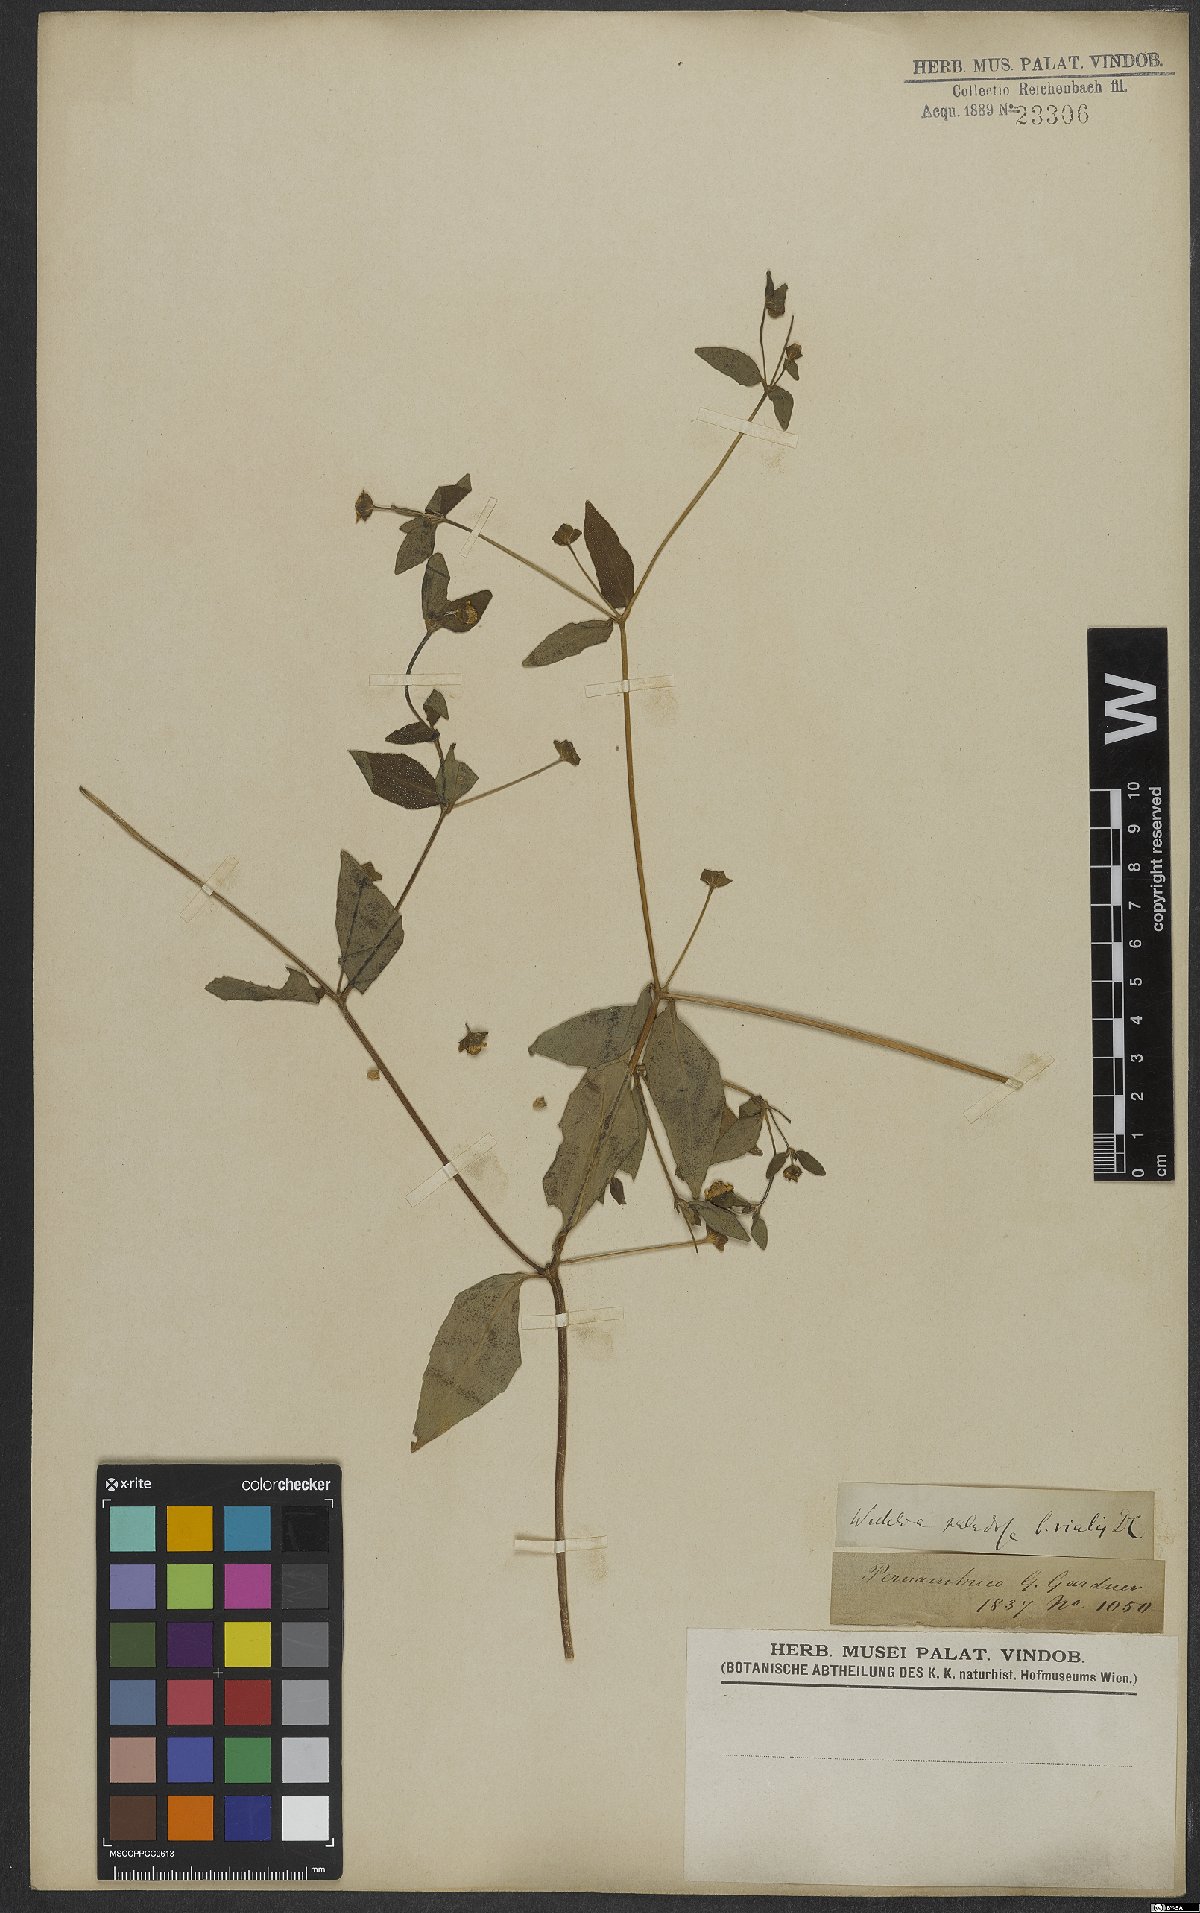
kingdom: Plantae
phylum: Tracheophyta
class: Magnoliopsida
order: Asterales
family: Asteraceae
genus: Sphagneticola
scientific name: Sphagneticola trilobata
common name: Bay biscayne creeping-oxeye
